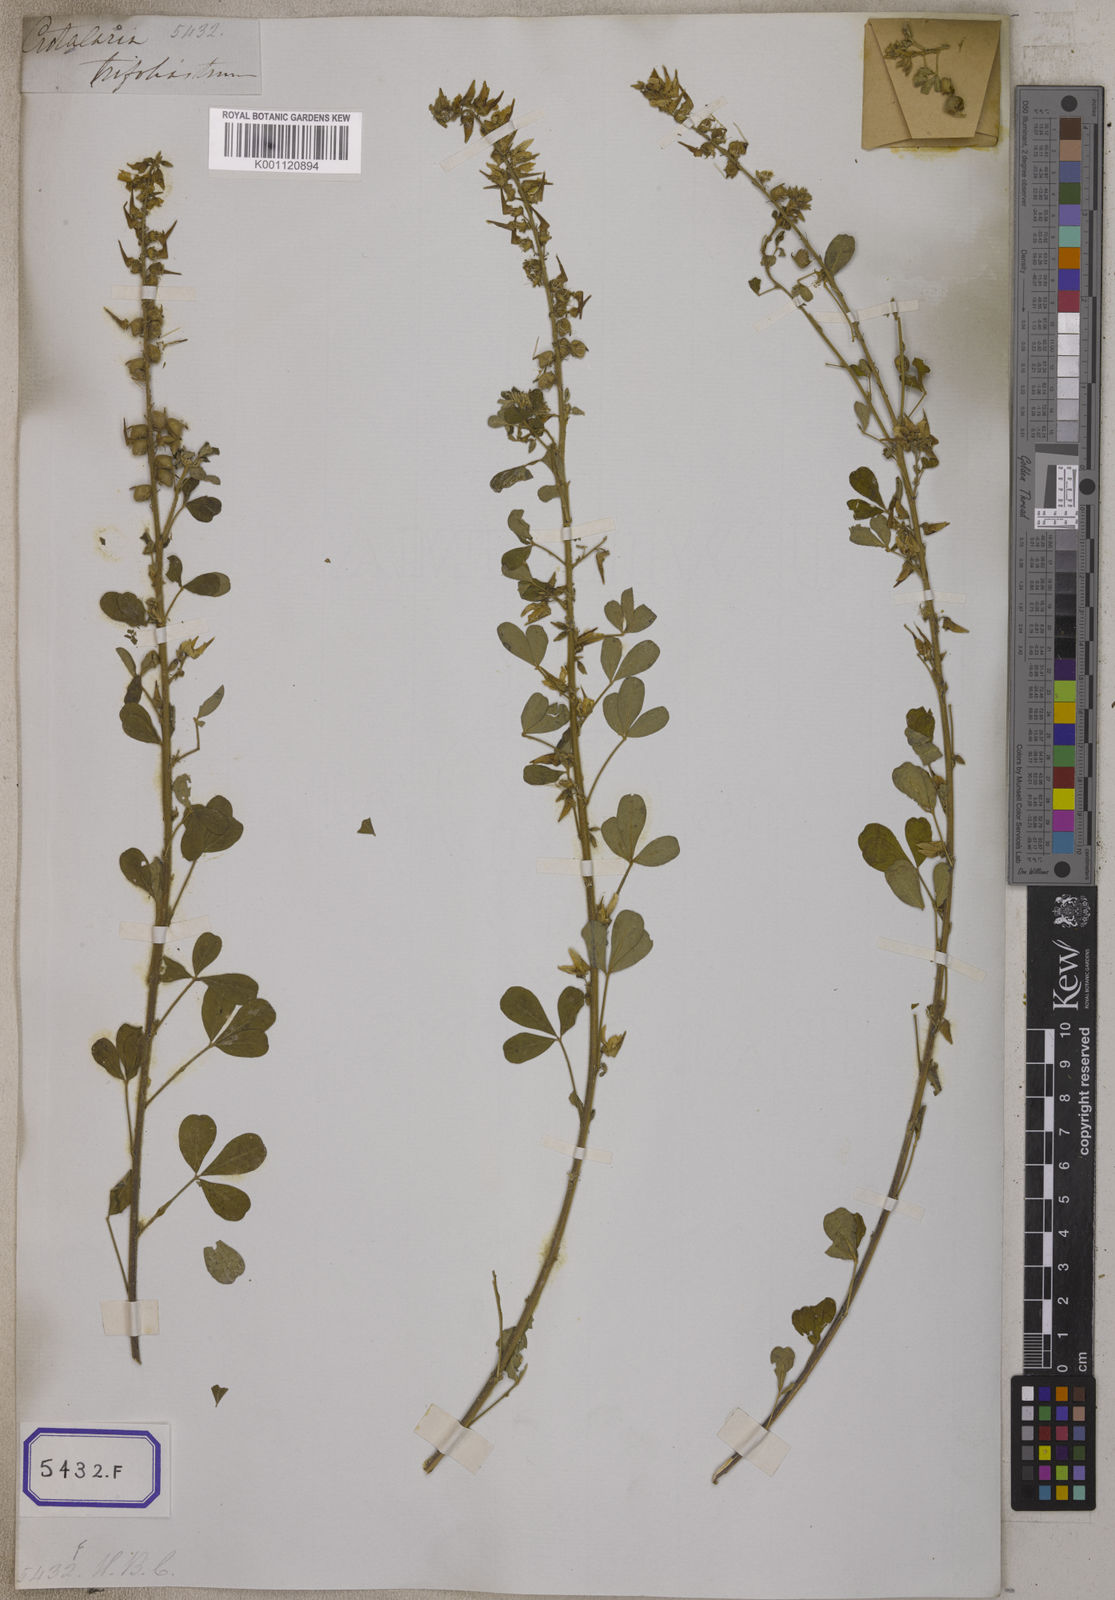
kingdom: Plantae
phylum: Tracheophyta
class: Magnoliopsida
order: Fabales
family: Fabaceae
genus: Crotalaria
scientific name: Crotalaria
